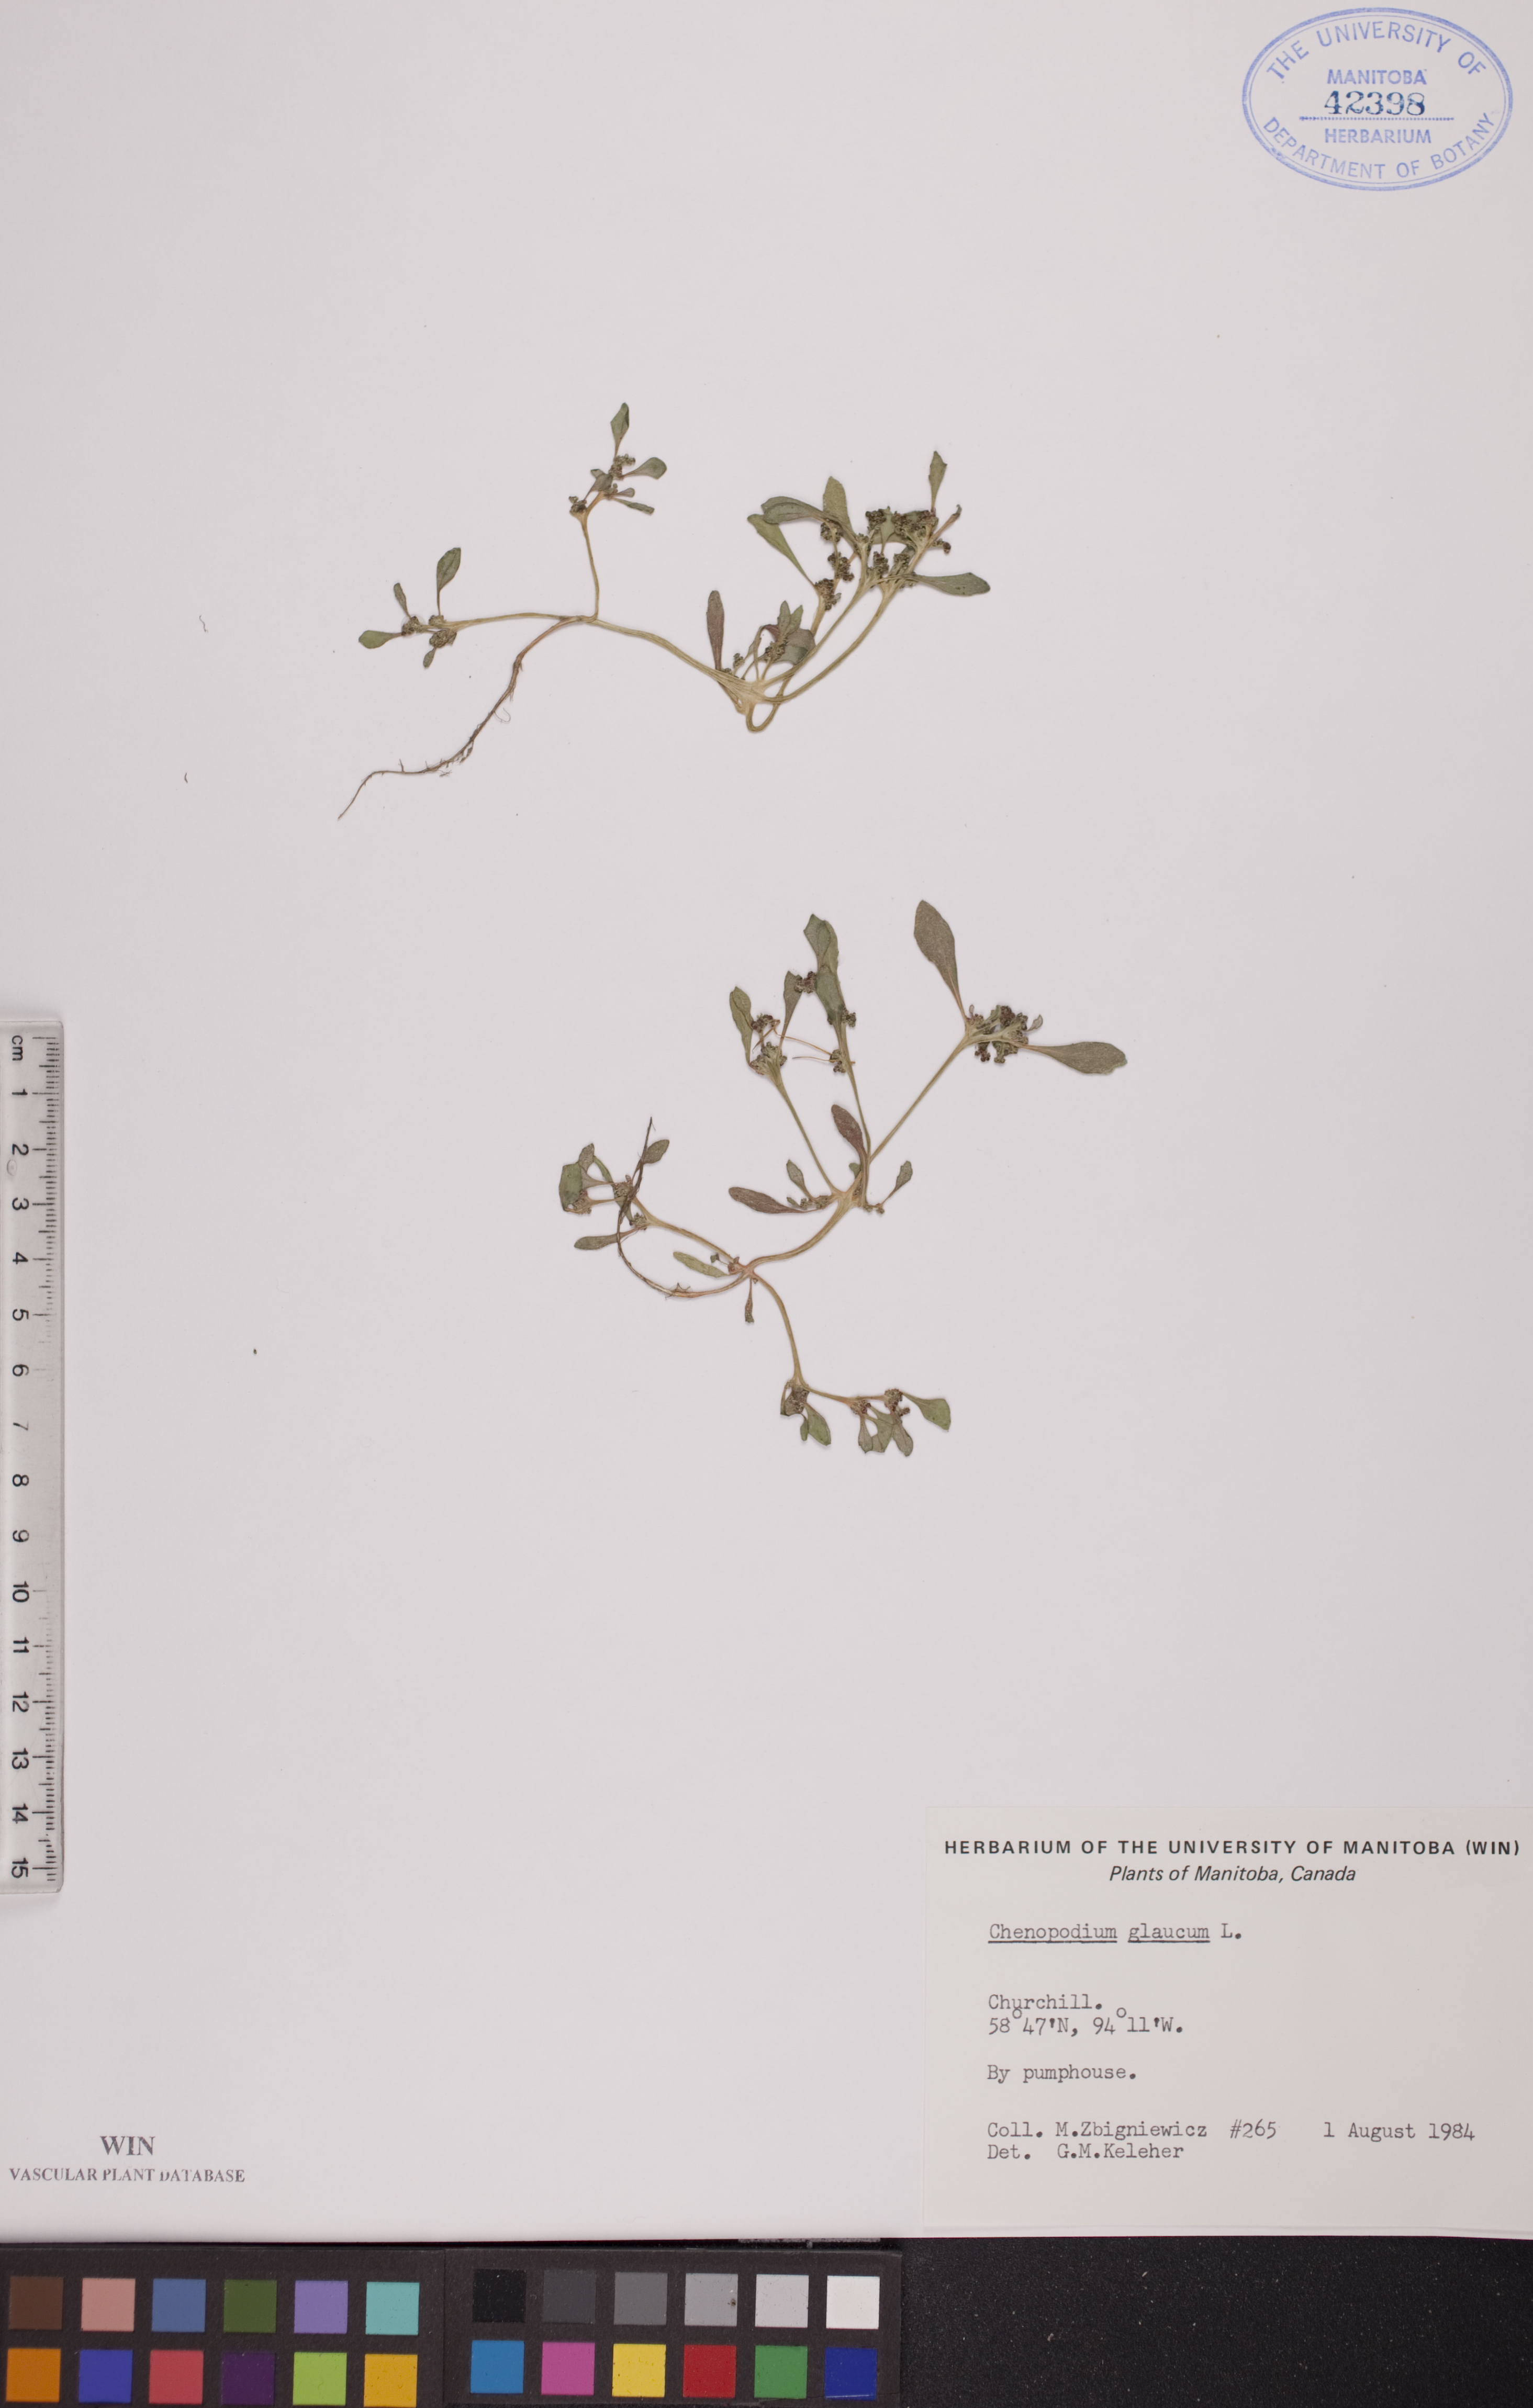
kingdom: Plantae
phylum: Tracheophyta
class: Magnoliopsida
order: Caryophyllales
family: Amaranthaceae
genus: Oxybasis
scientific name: Oxybasis glauca
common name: Glaucous goosefoot
